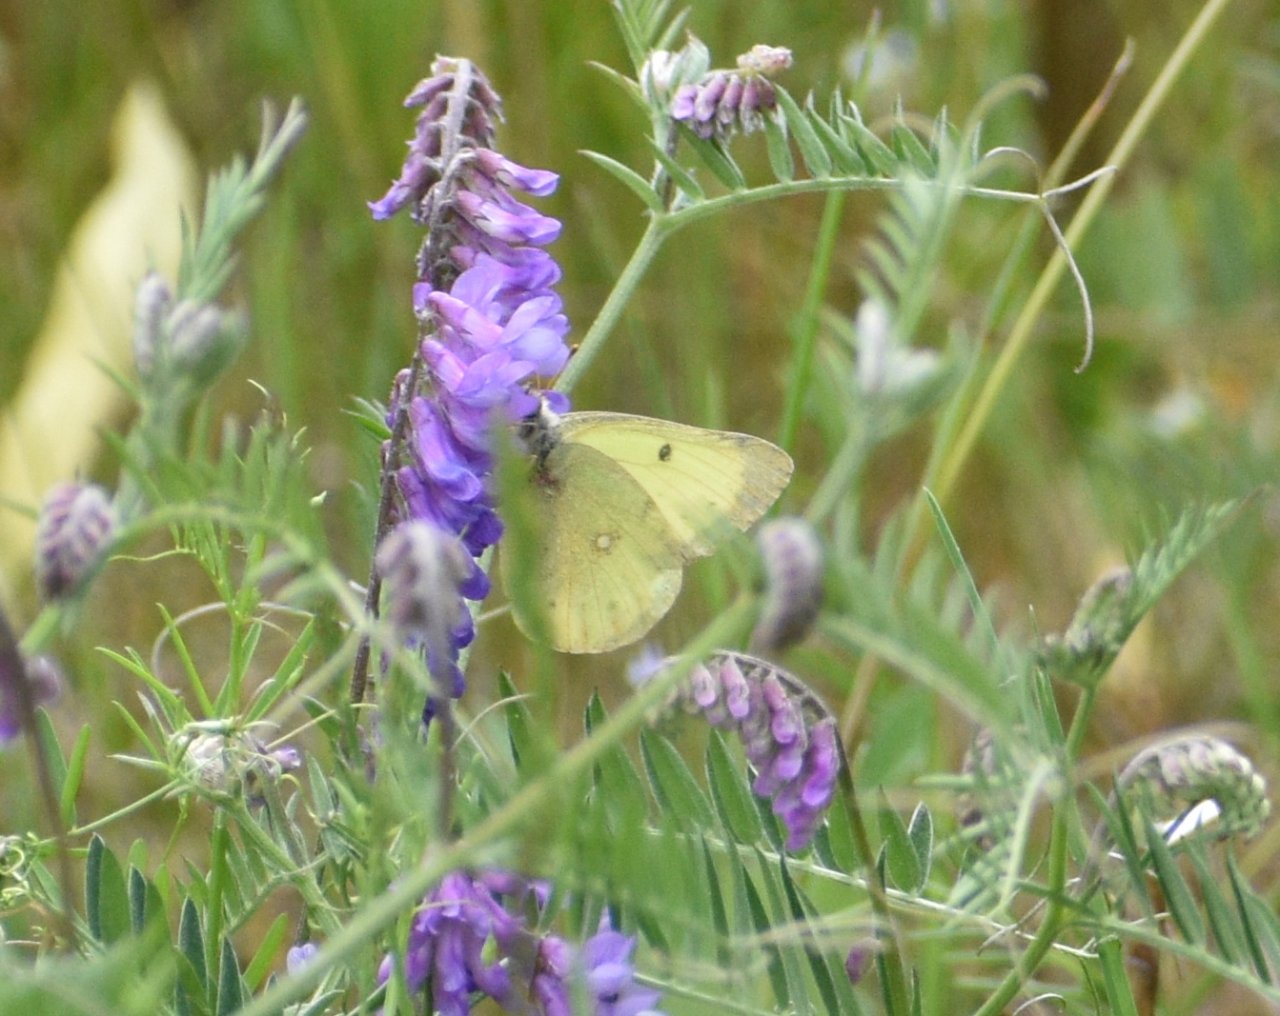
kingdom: Animalia
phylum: Arthropoda
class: Insecta
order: Lepidoptera
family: Pieridae
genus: Colias
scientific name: Colias philodice
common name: Clouded Sulphur
